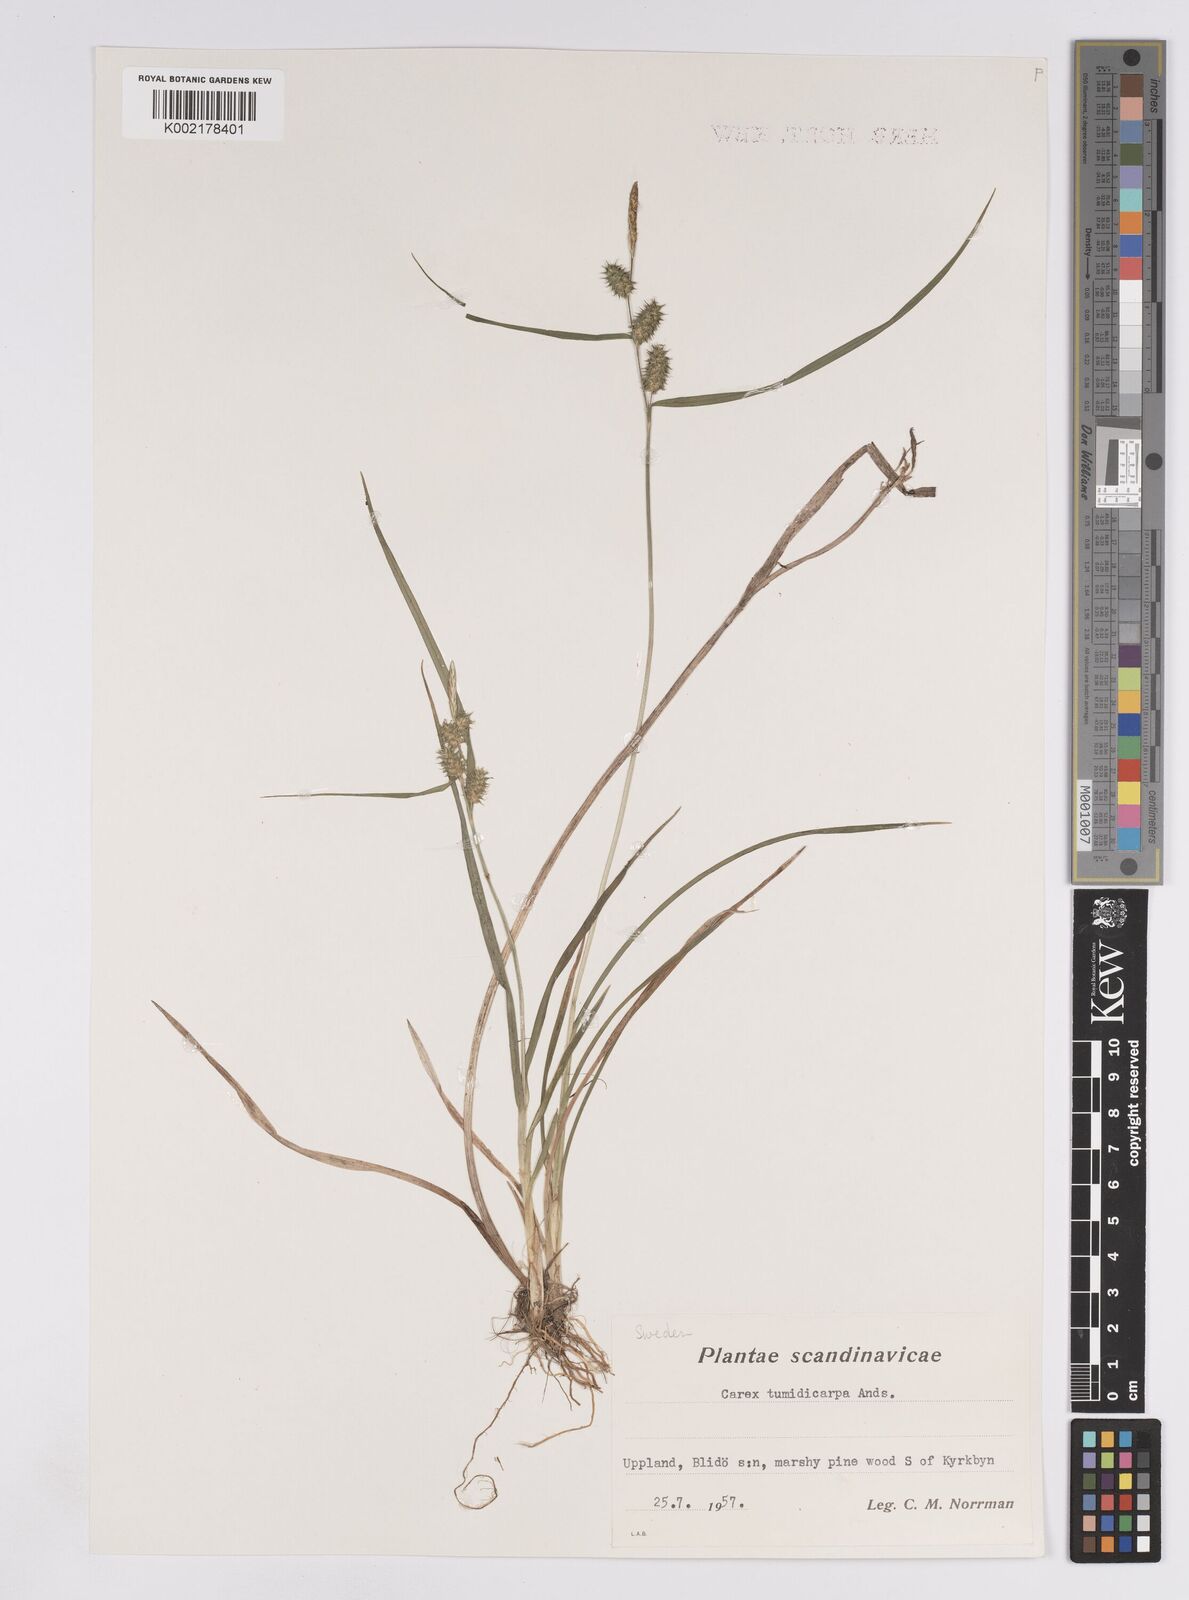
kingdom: Plantae
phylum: Tracheophyta
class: Liliopsida
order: Poales
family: Cyperaceae
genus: Carex
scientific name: Carex demissa
